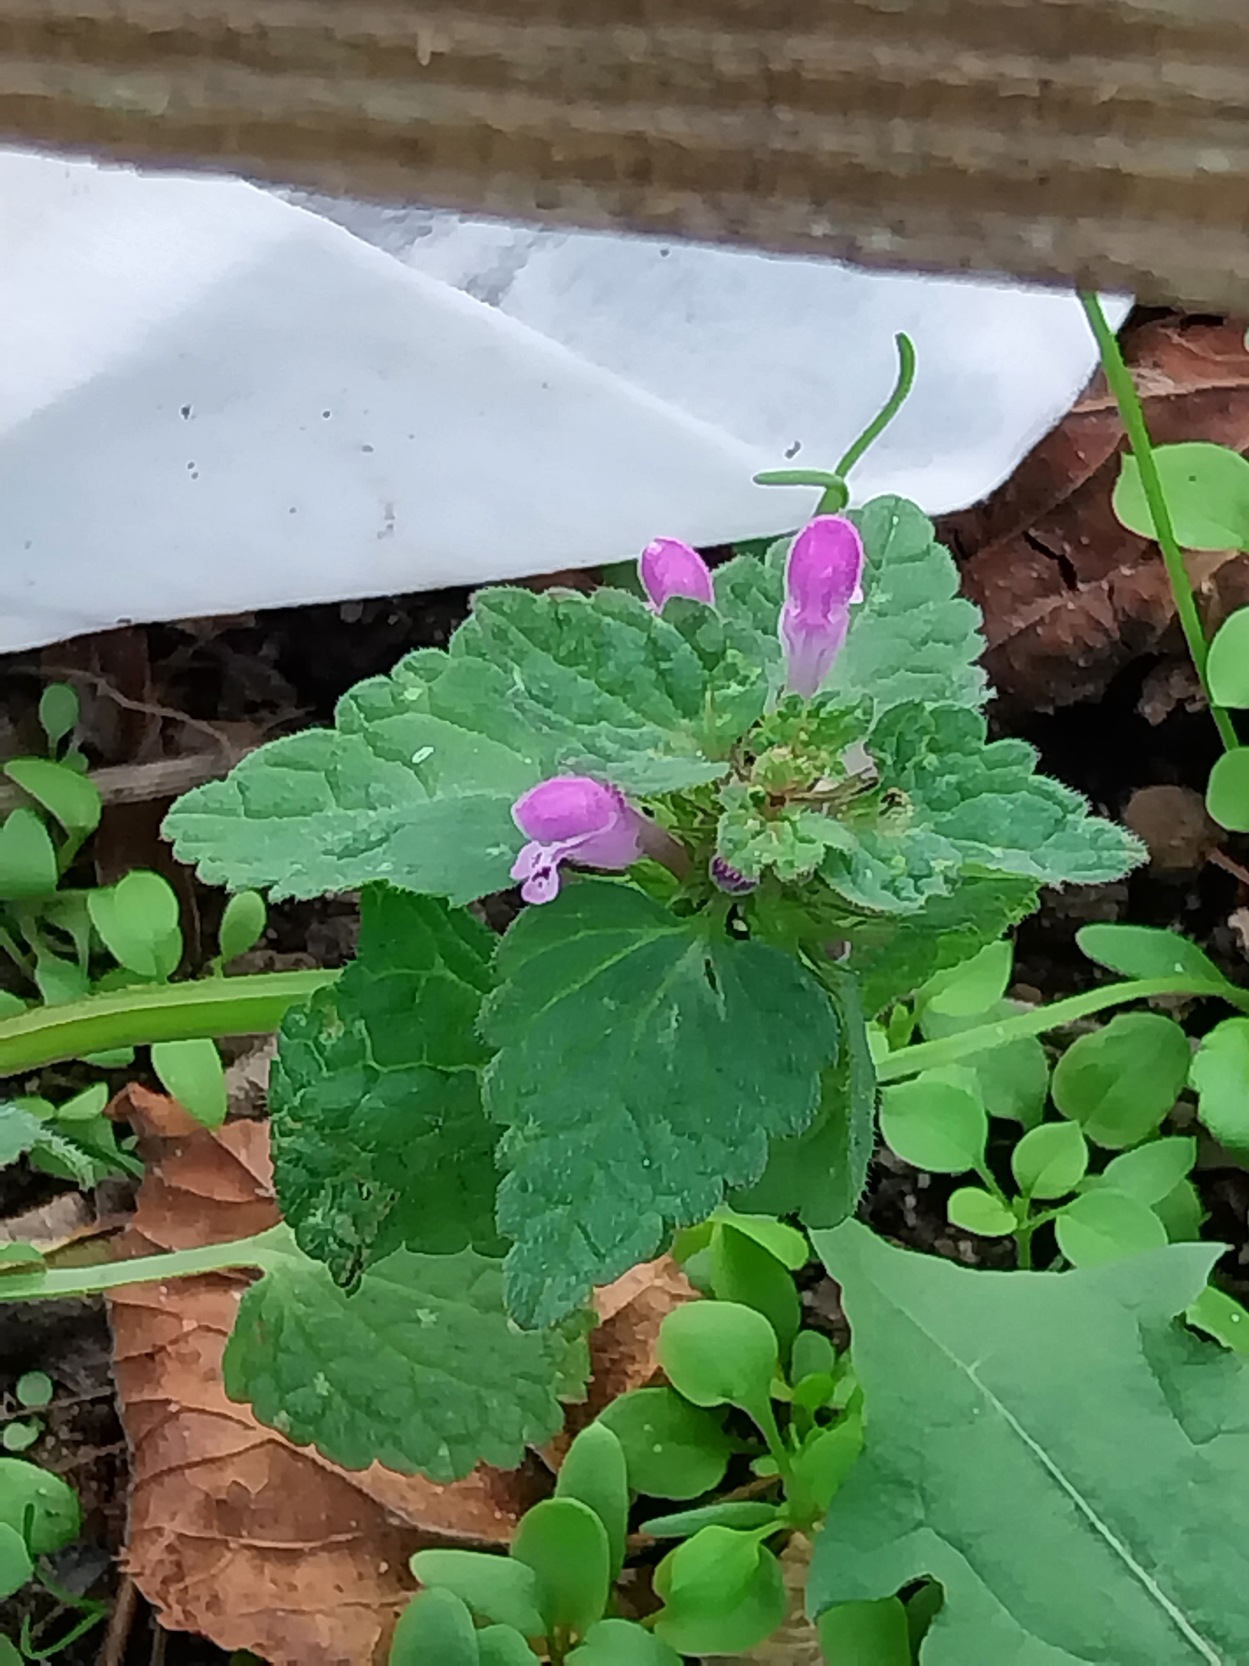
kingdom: Plantae
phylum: Tracheophyta
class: Magnoliopsida
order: Lamiales
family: Lamiaceae
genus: Lamium
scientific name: Lamium purpureum
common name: Rød tvetand
